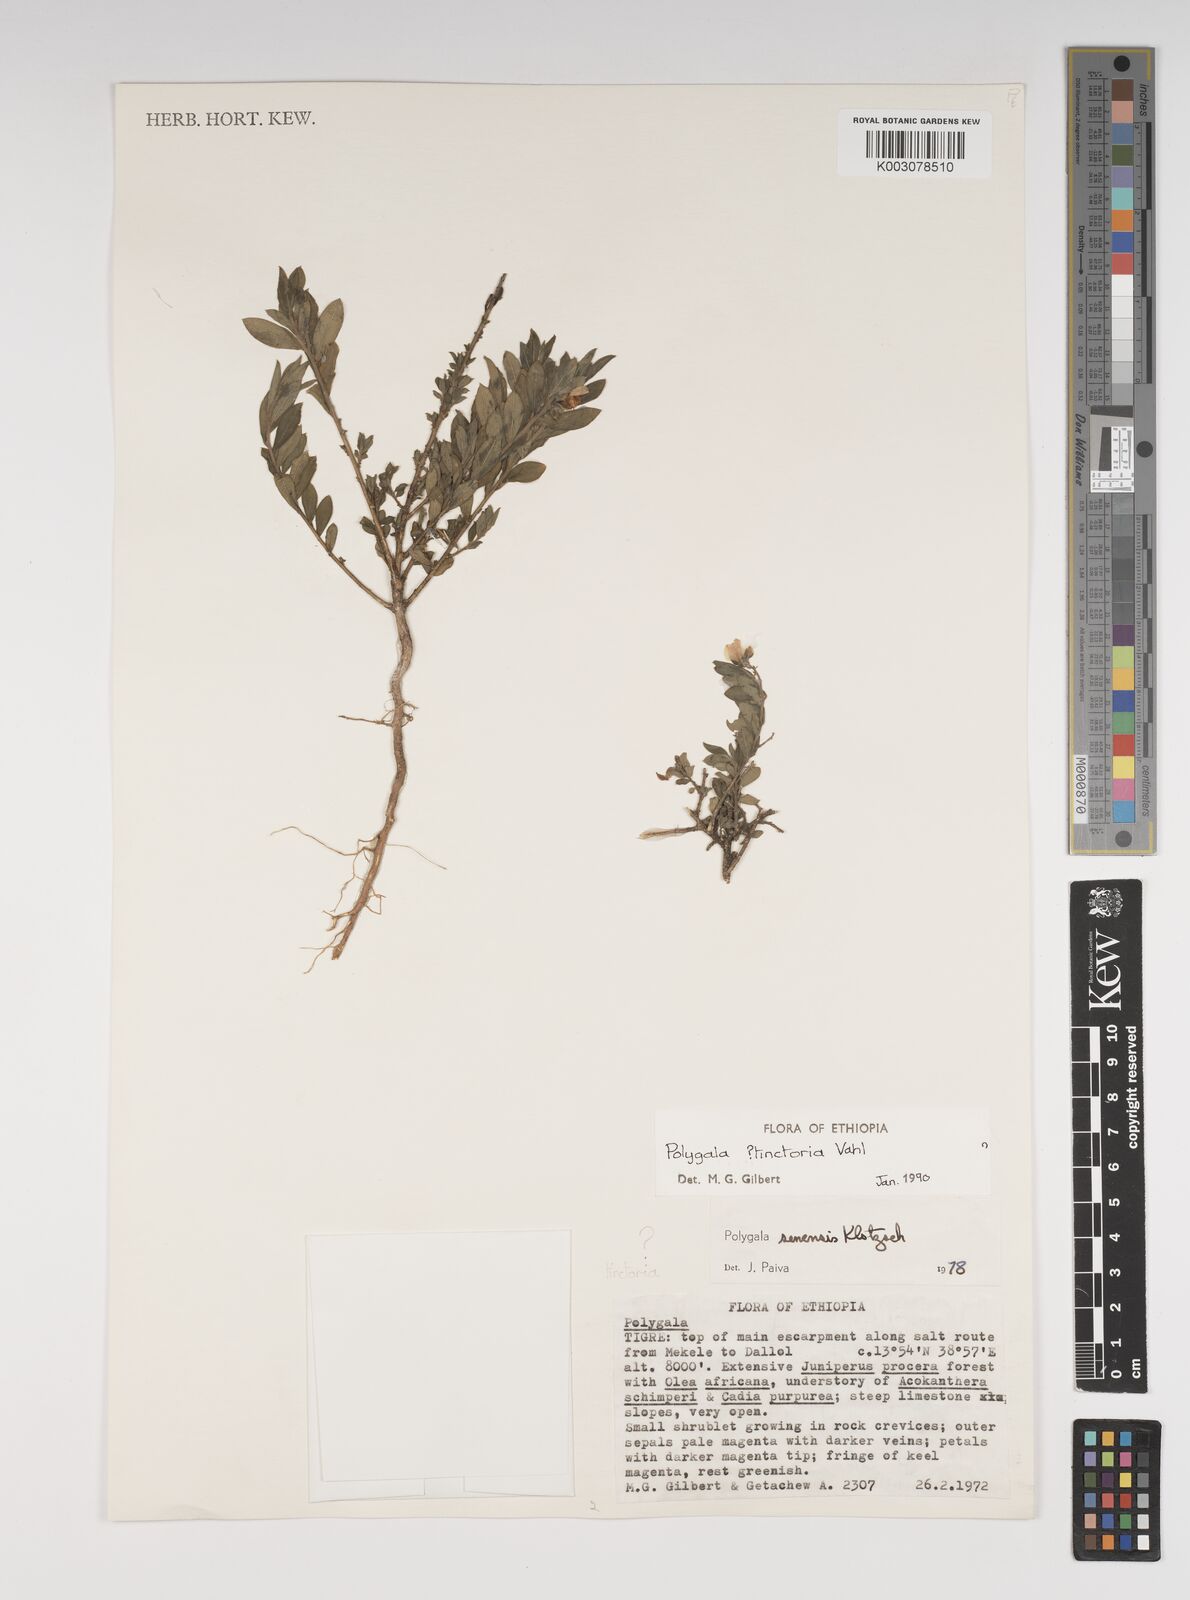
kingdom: Plantae
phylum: Tracheophyta
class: Magnoliopsida
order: Fabales
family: Polygalaceae
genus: Polygala
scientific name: Polygala tinctoria
